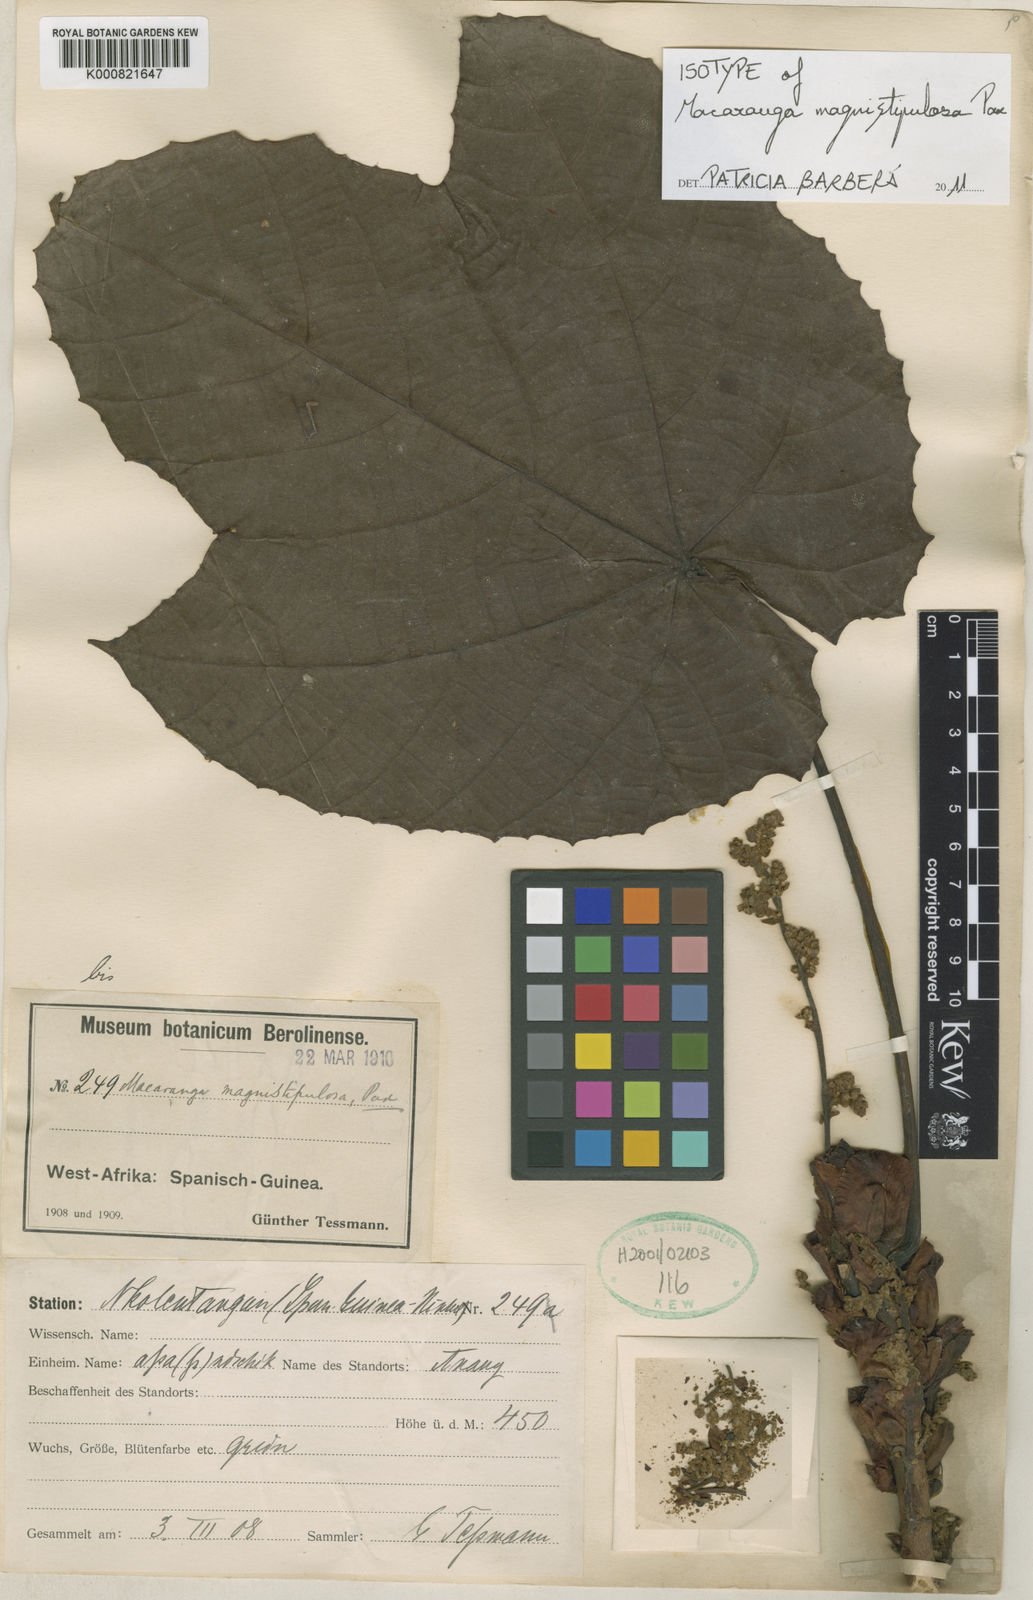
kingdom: Plantae
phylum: Tracheophyta
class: Magnoliopsida
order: Malpighiales
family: Euphorbiaceae
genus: Macaranga
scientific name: Macaranga magnistipulosa
